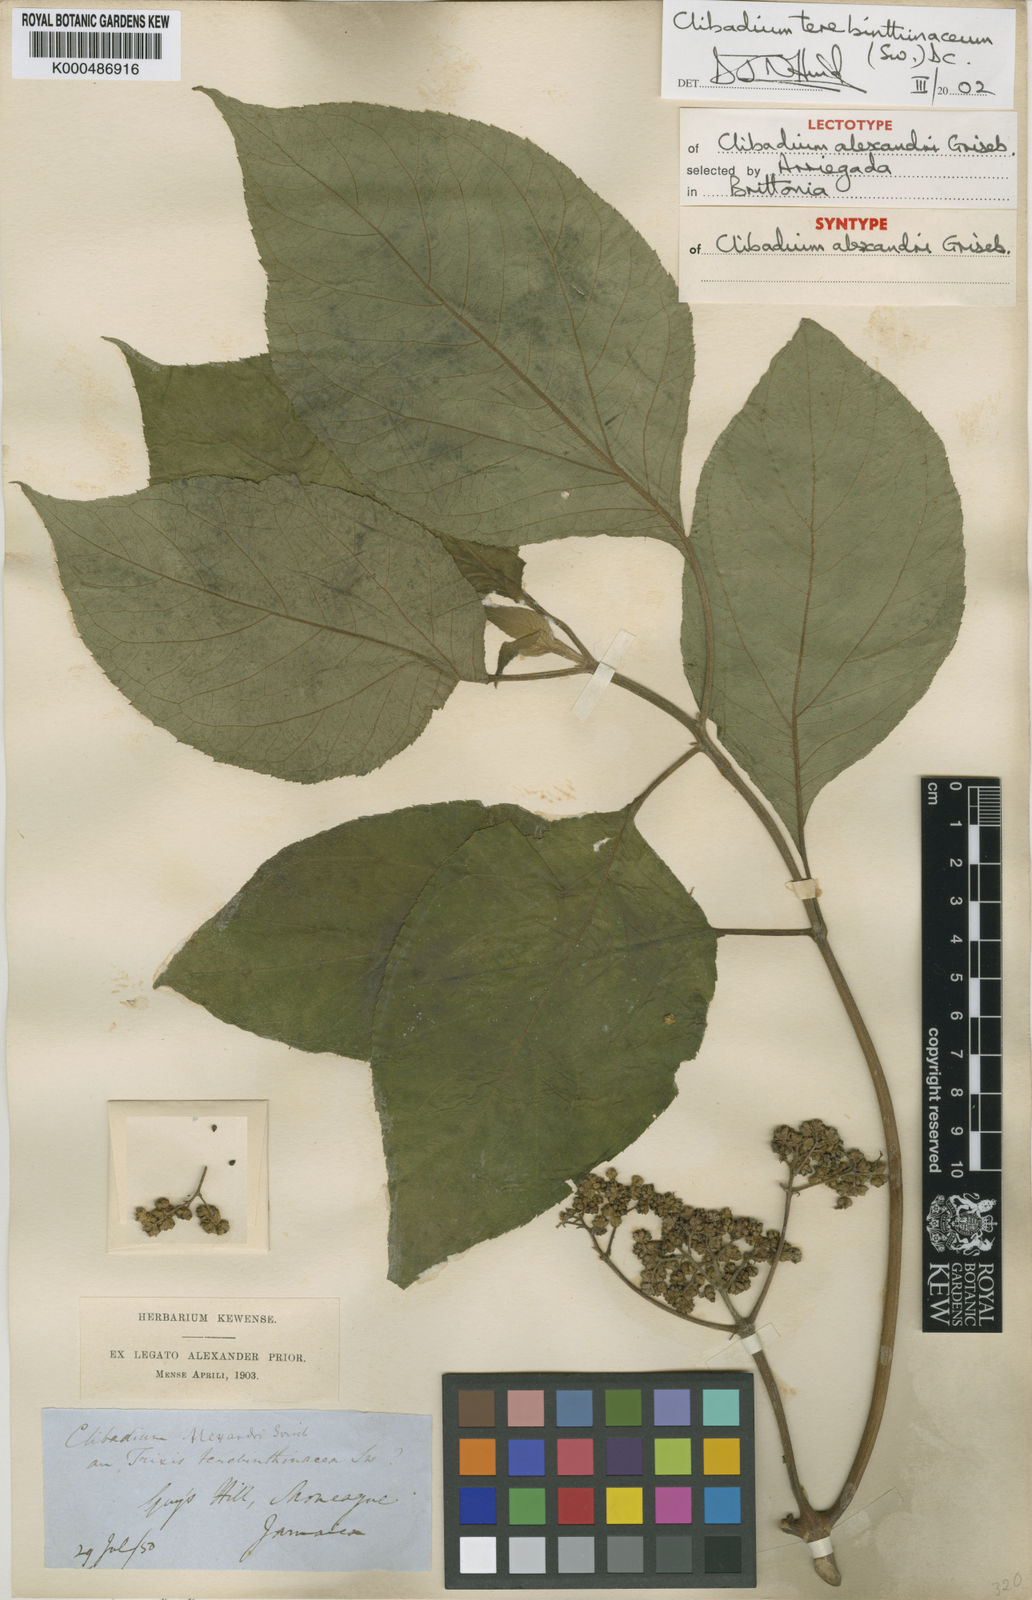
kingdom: Plantae
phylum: Tracheophyta
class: Magnoliopsida
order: Asterales
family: Asteraceae
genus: Clibadium
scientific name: Clibadium terebinthinaceum
